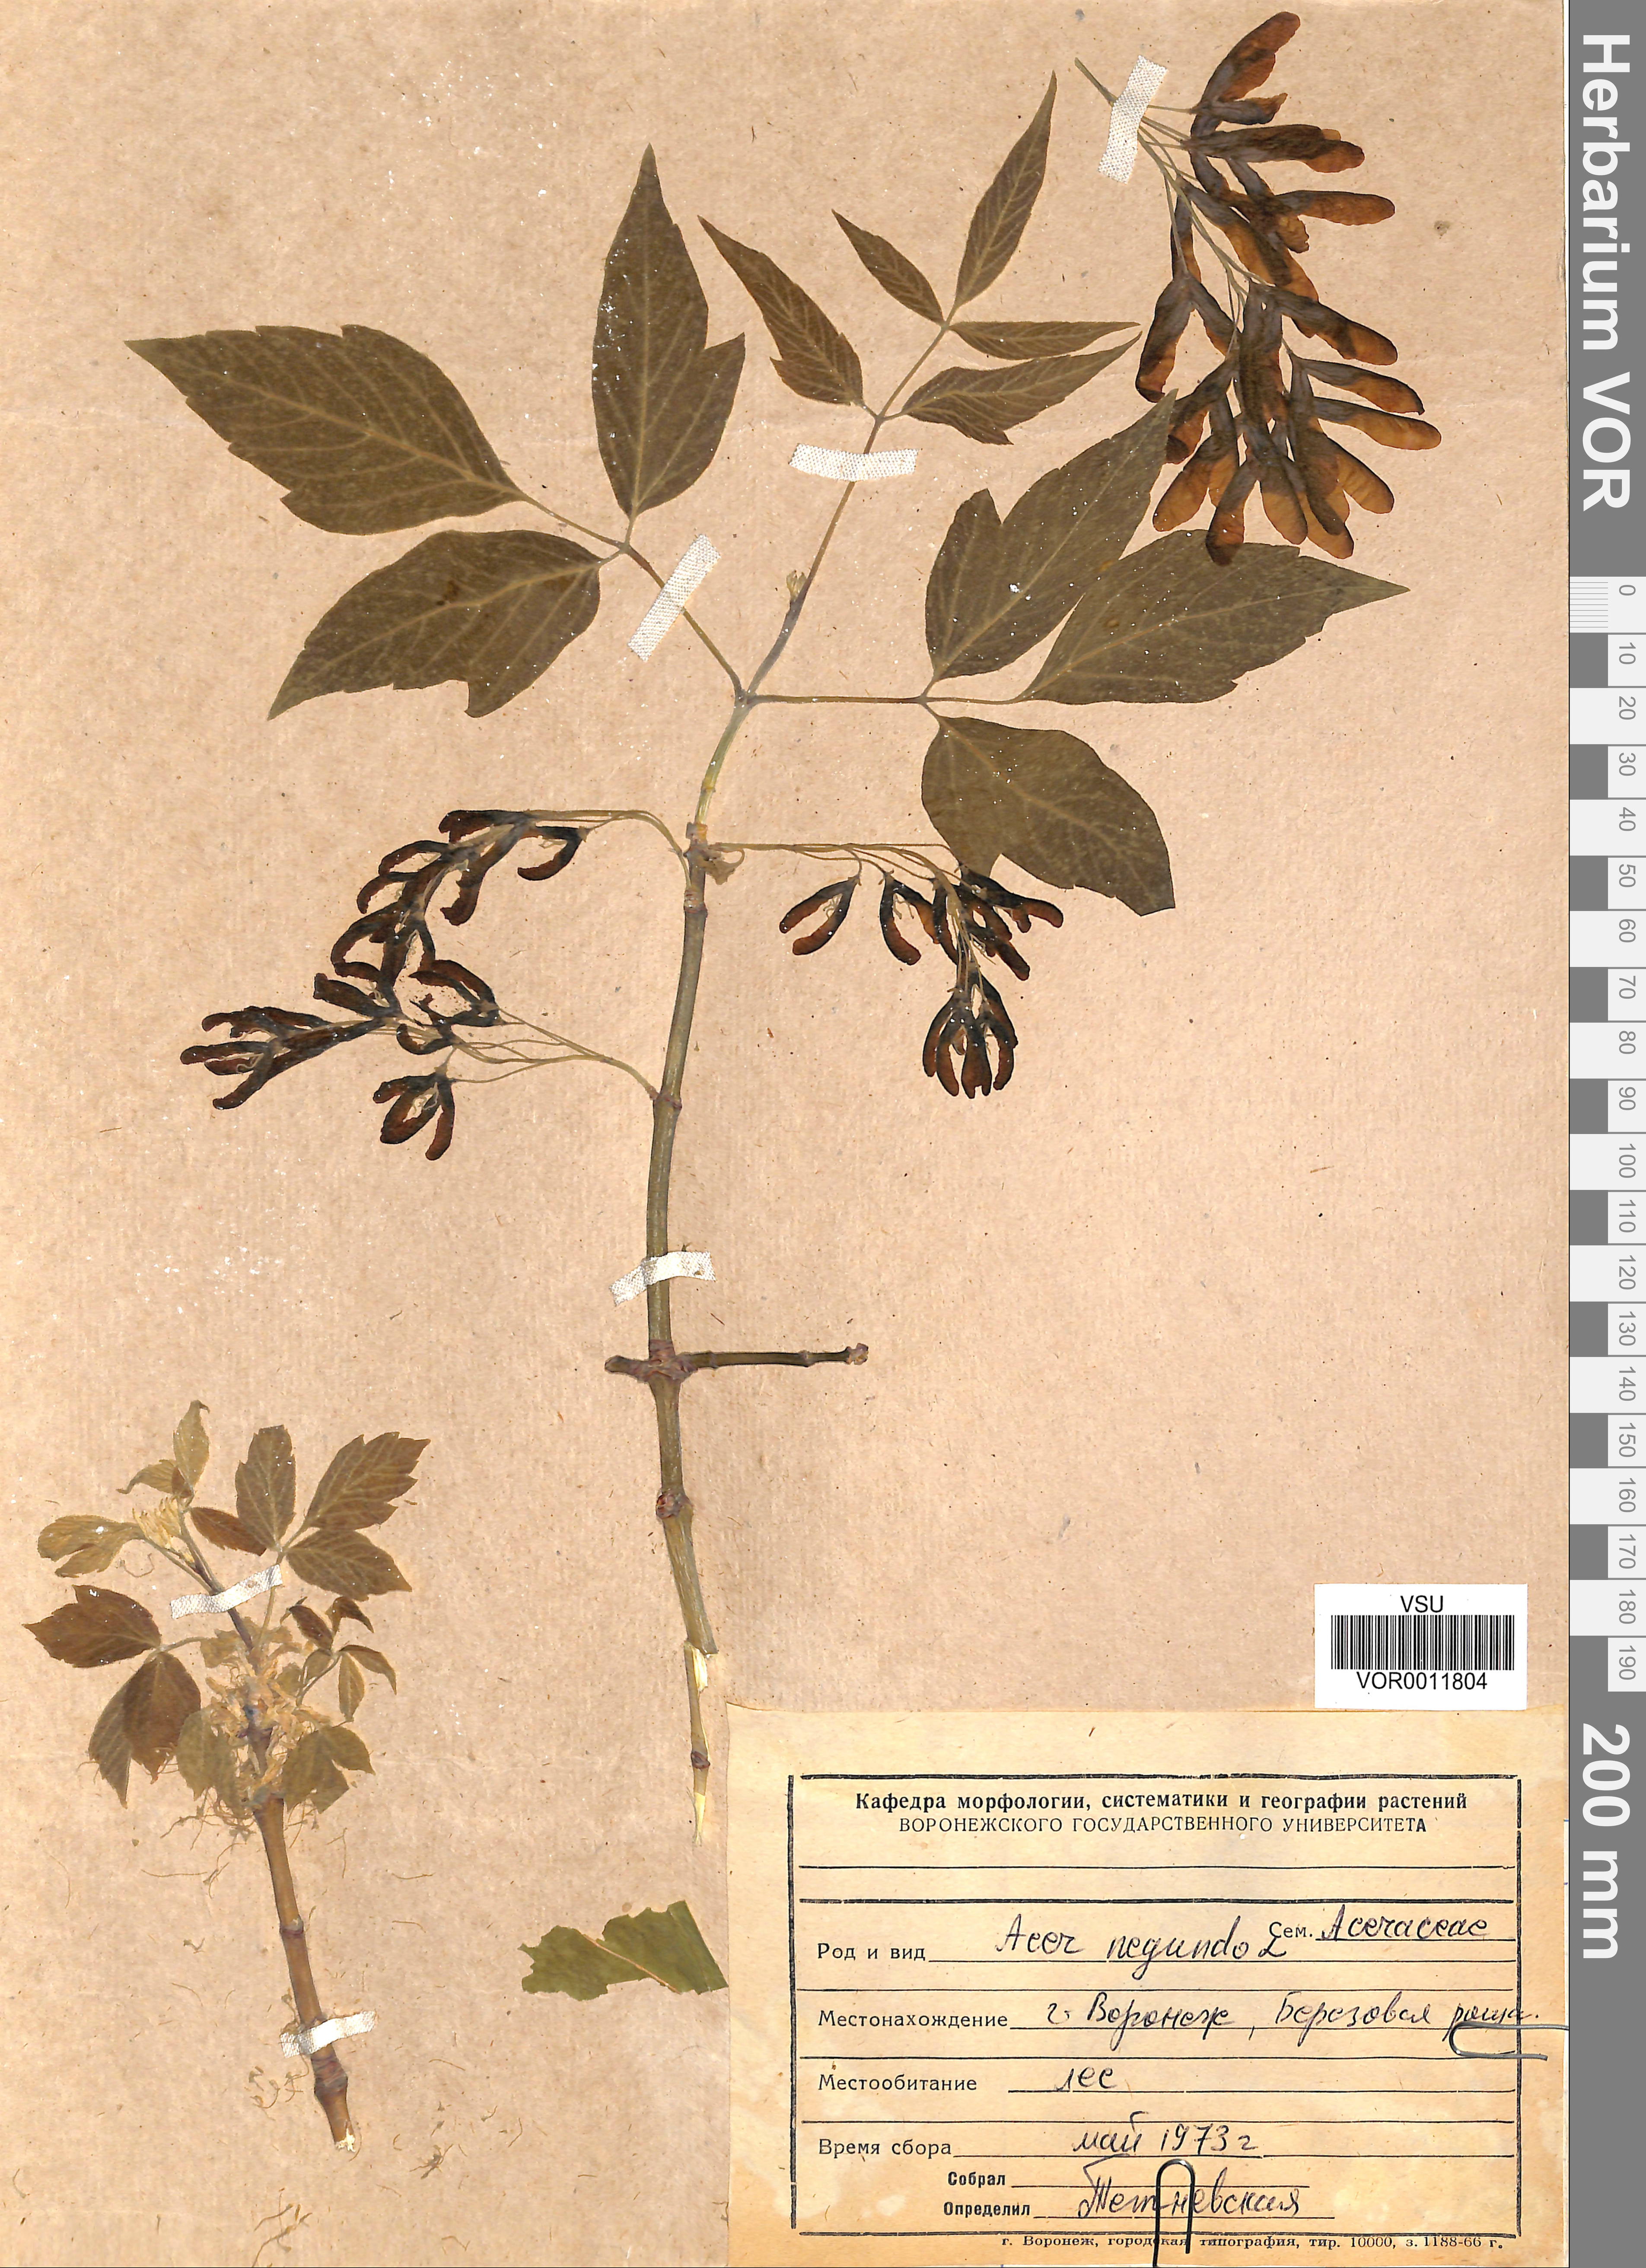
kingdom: Plantae
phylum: Tracheophyta
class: Magnoliopsida
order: Sapindales
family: Sapindaceae
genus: Acer
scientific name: Acer negundo
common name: Ashleaf maple
